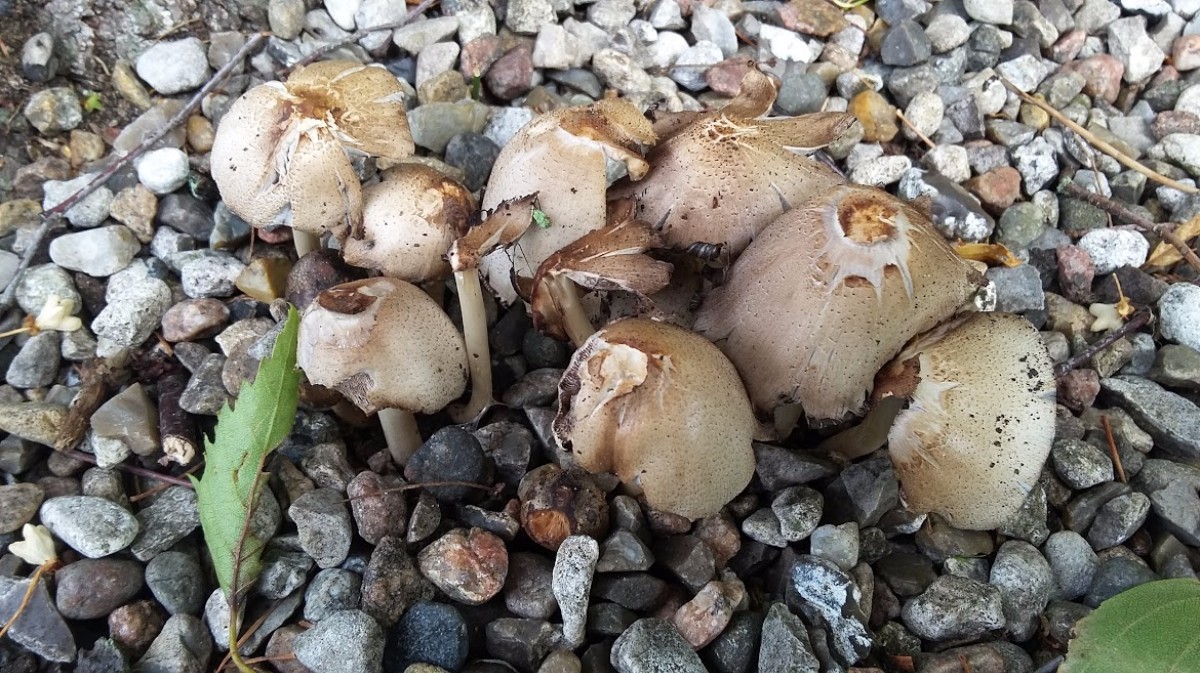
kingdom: Fungi
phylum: Basidiomycota
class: Agaricomycetes
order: Agaricales
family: Psathyrellaceae
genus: Coprinopsis
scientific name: Coprinopsis atramentaria
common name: almindelig blækhat
